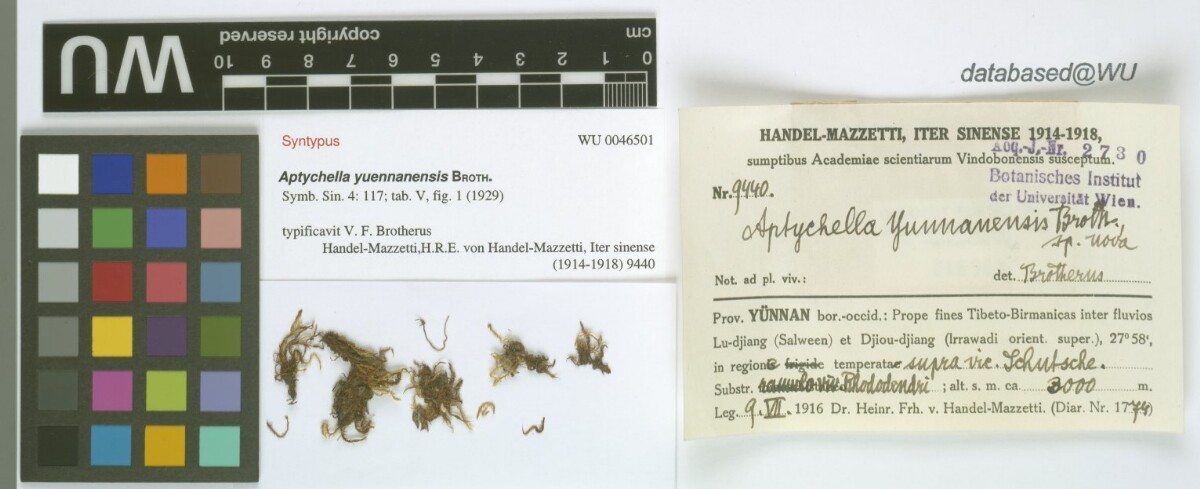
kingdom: Plantae
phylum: Bryophyta
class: Bryopsida
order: Hypnales
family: Pylaisiadelphaceae
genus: Aptychella
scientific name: Aptychella planula
